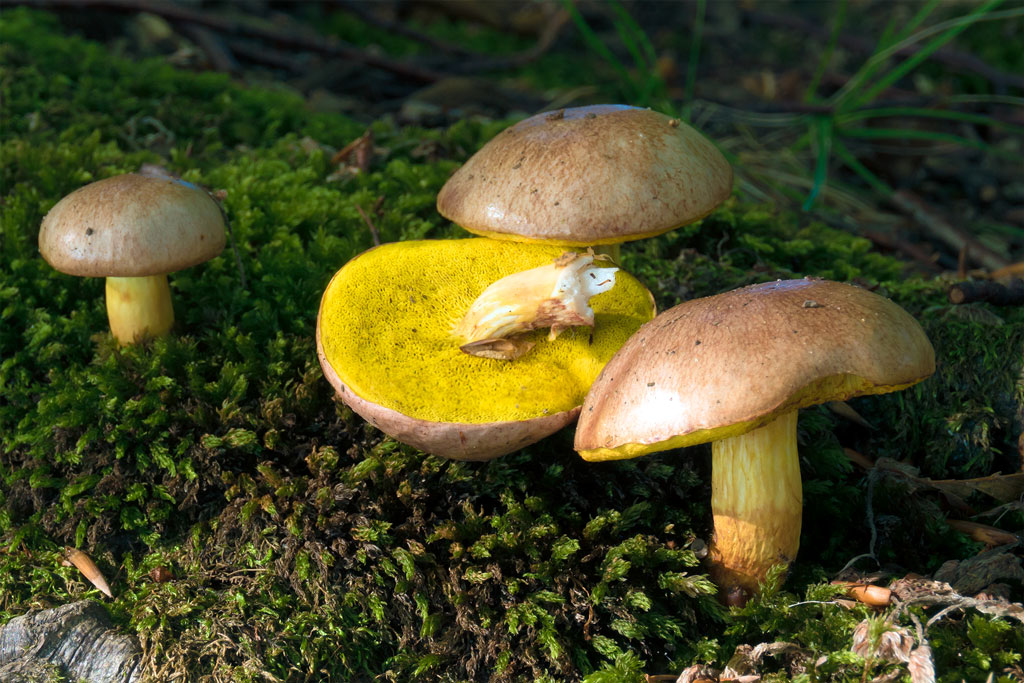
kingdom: Fungi
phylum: Basidiomycota
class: Agaricomycetes
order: Boletales
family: Boletaceae
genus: Aureoboletus
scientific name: Aureoboletus gentilis
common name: guldrørhat
